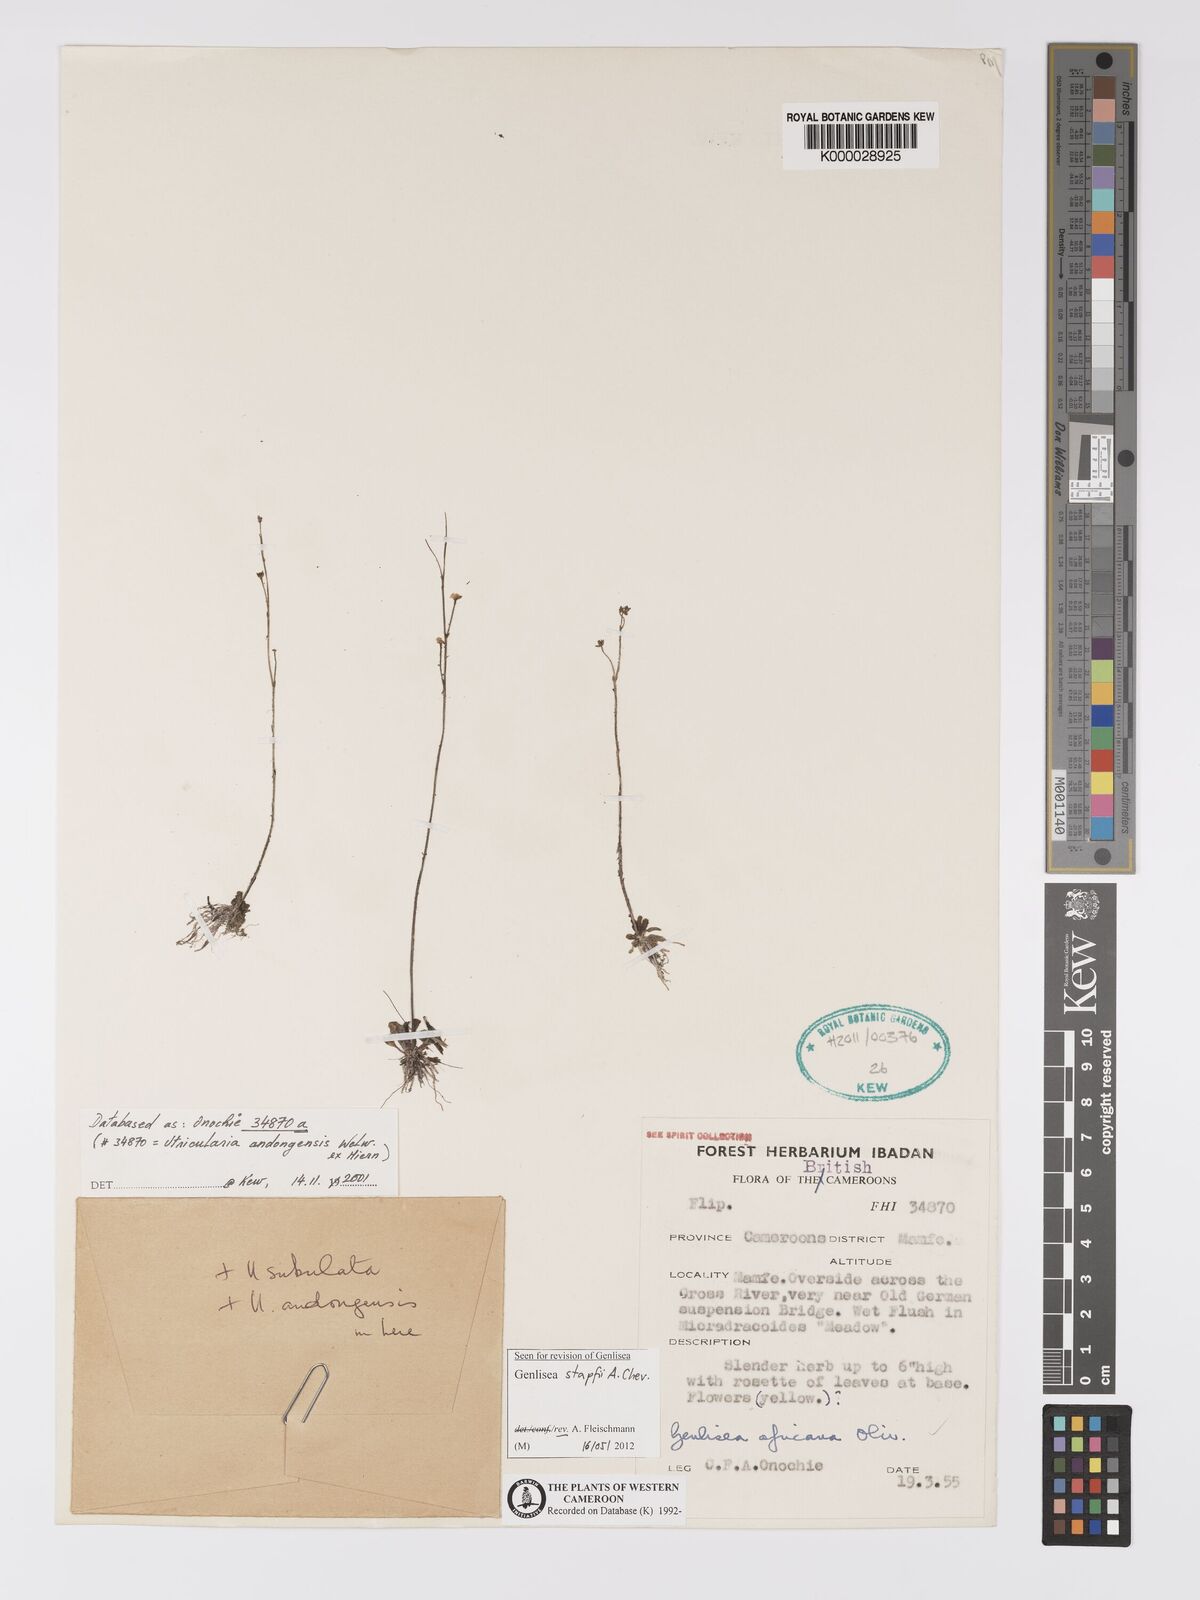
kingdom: Plantae
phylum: Tracheophyta
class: Magnoliopsida
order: Lamiales
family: Lentibulariaceae
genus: Genlisea
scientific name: Genlisea stapfii
